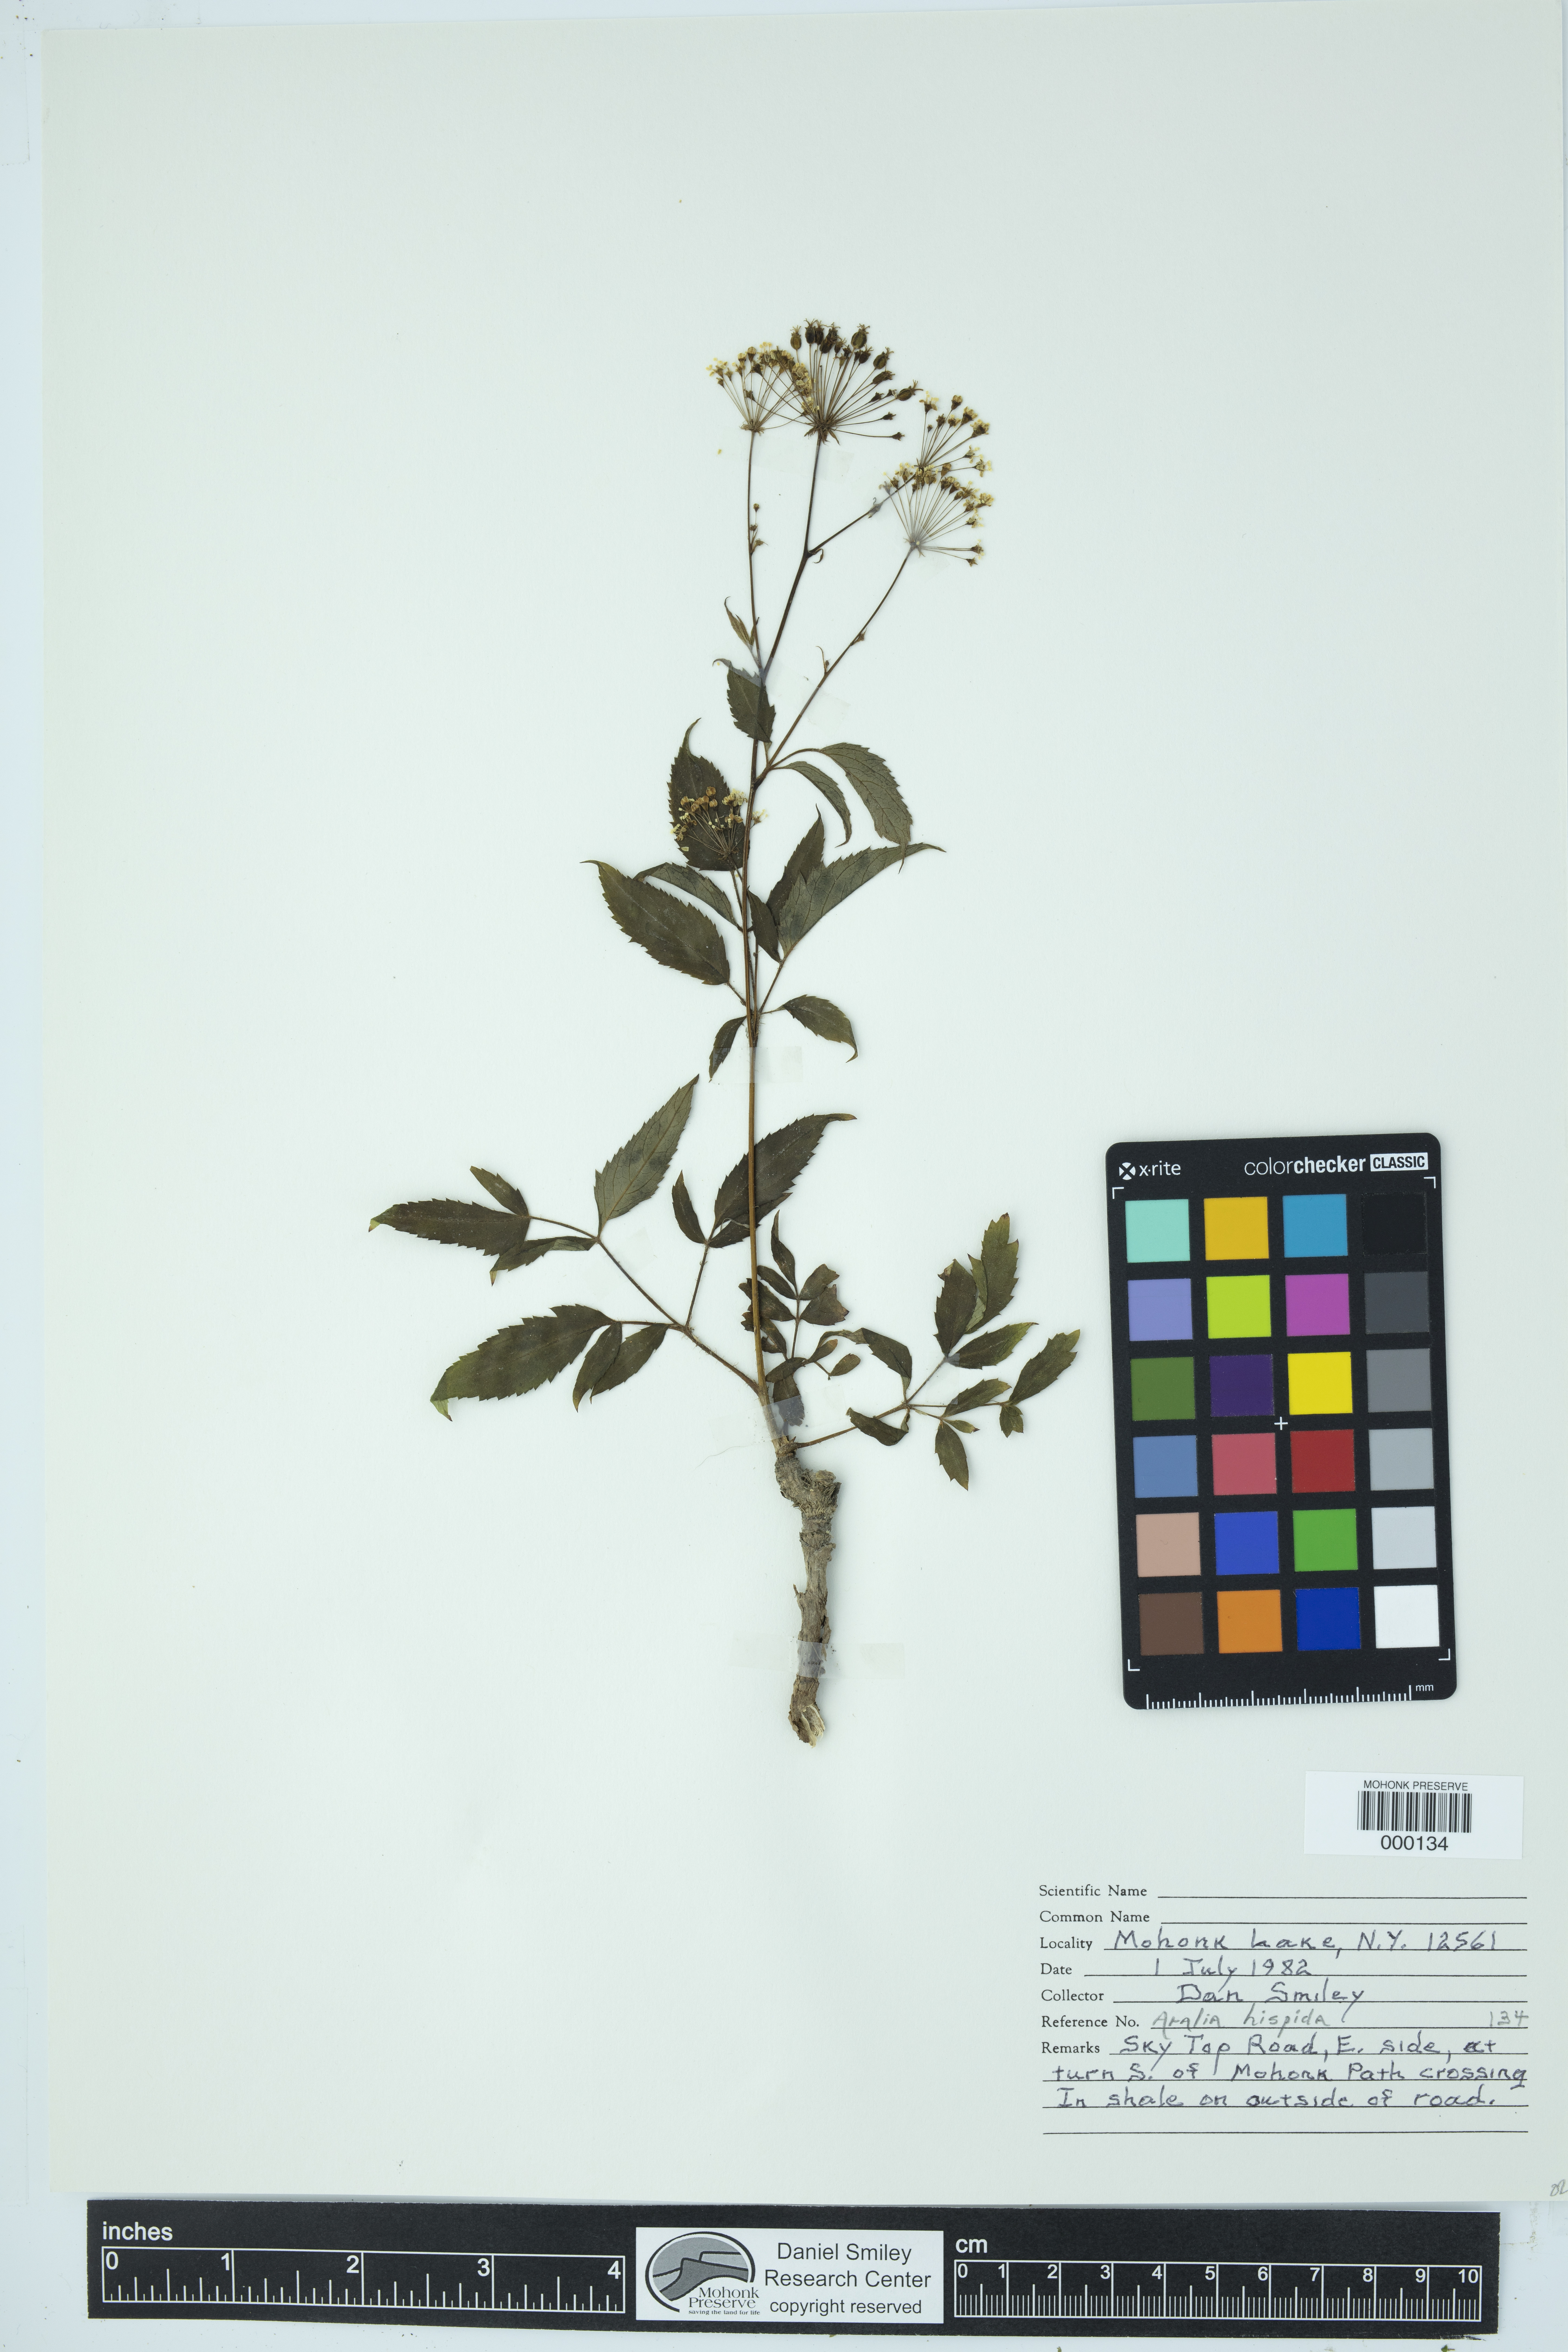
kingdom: Plantae
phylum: Tracheophyta
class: Magnoliopsida
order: Apiales
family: Araliaceae
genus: Aralia
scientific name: Aralia hispida
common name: Bristly sarsaparilla
